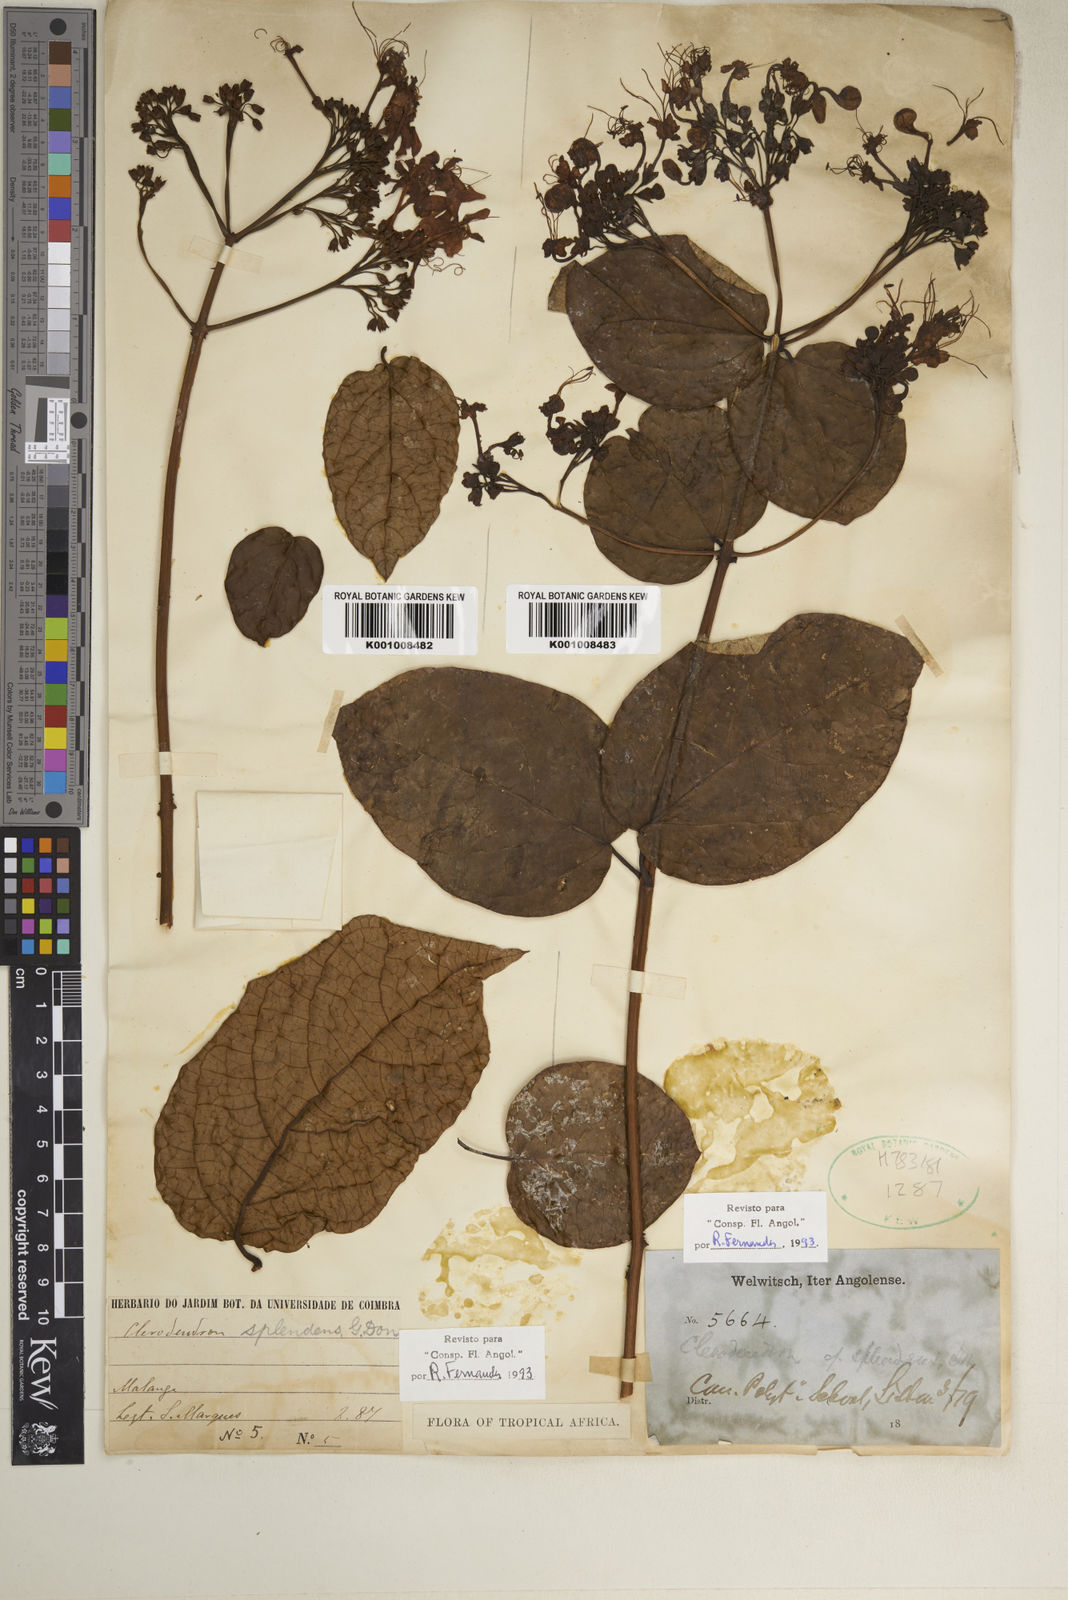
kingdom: Plantae
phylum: Tracheophyta
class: Magnoliopsida
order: Lamiales
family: Lamiaceae
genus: Clerodendrum
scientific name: Clerodendrum splendens
